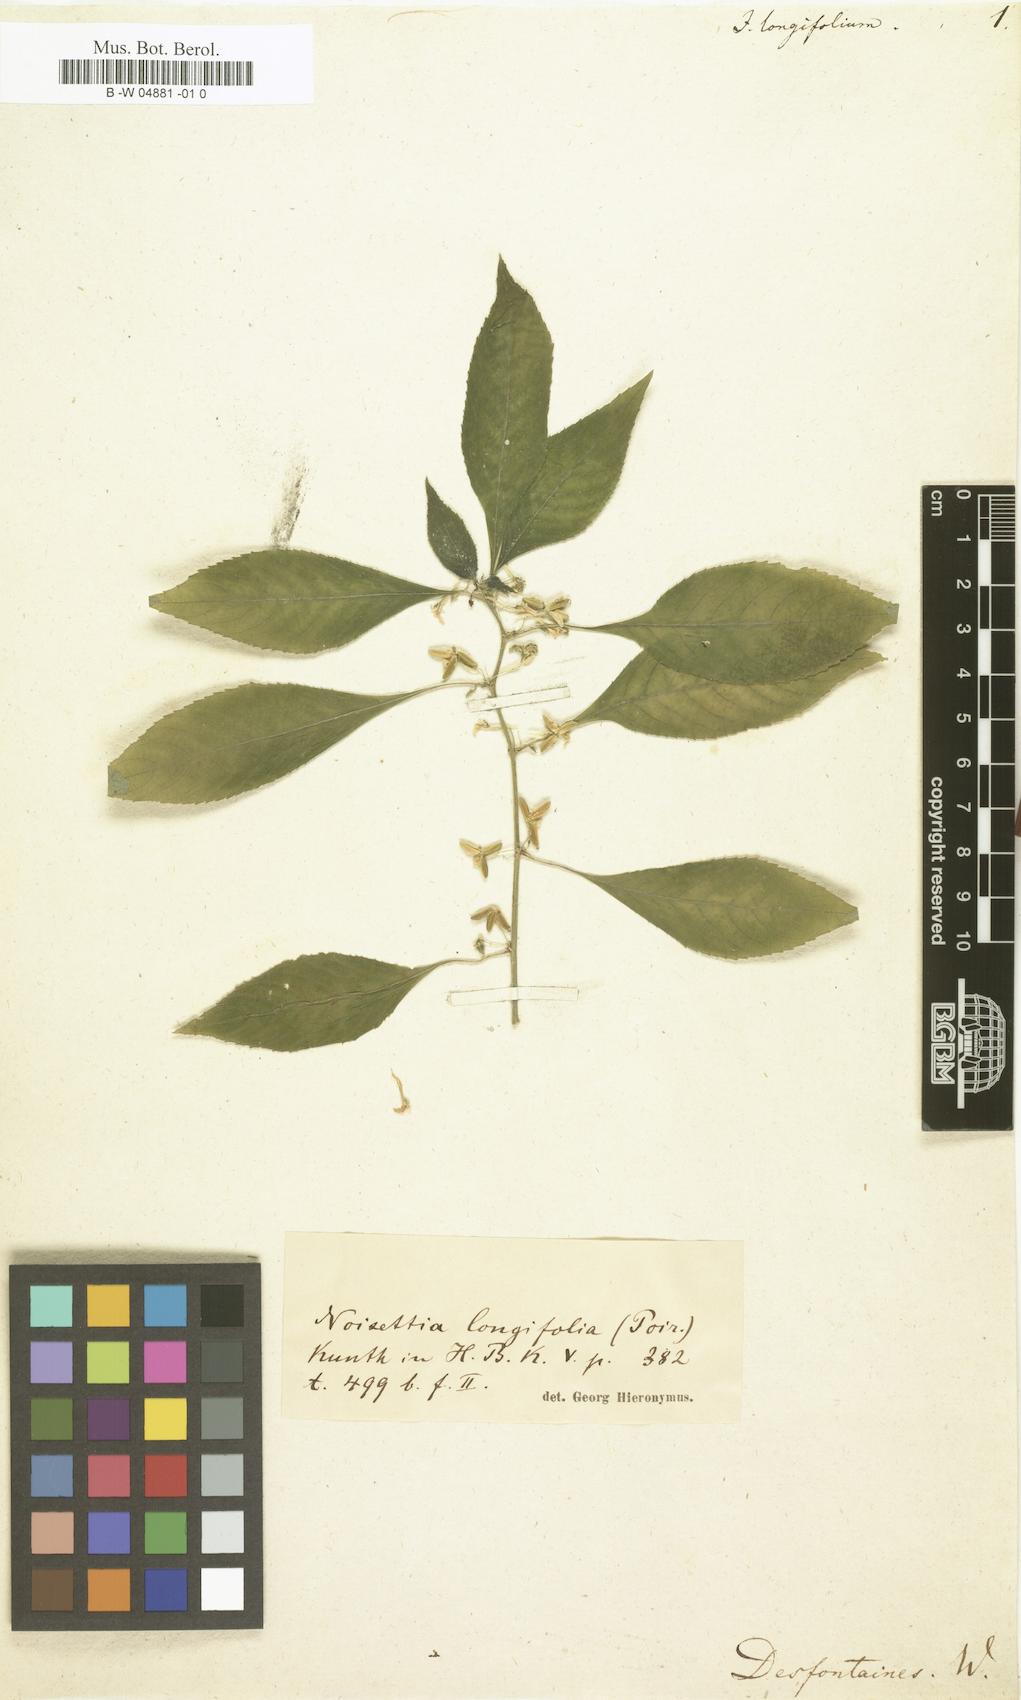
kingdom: Plantae
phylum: Tracheophyta
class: Magnoliopsida
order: Malpighiales
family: Violaceae
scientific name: Violaceae
